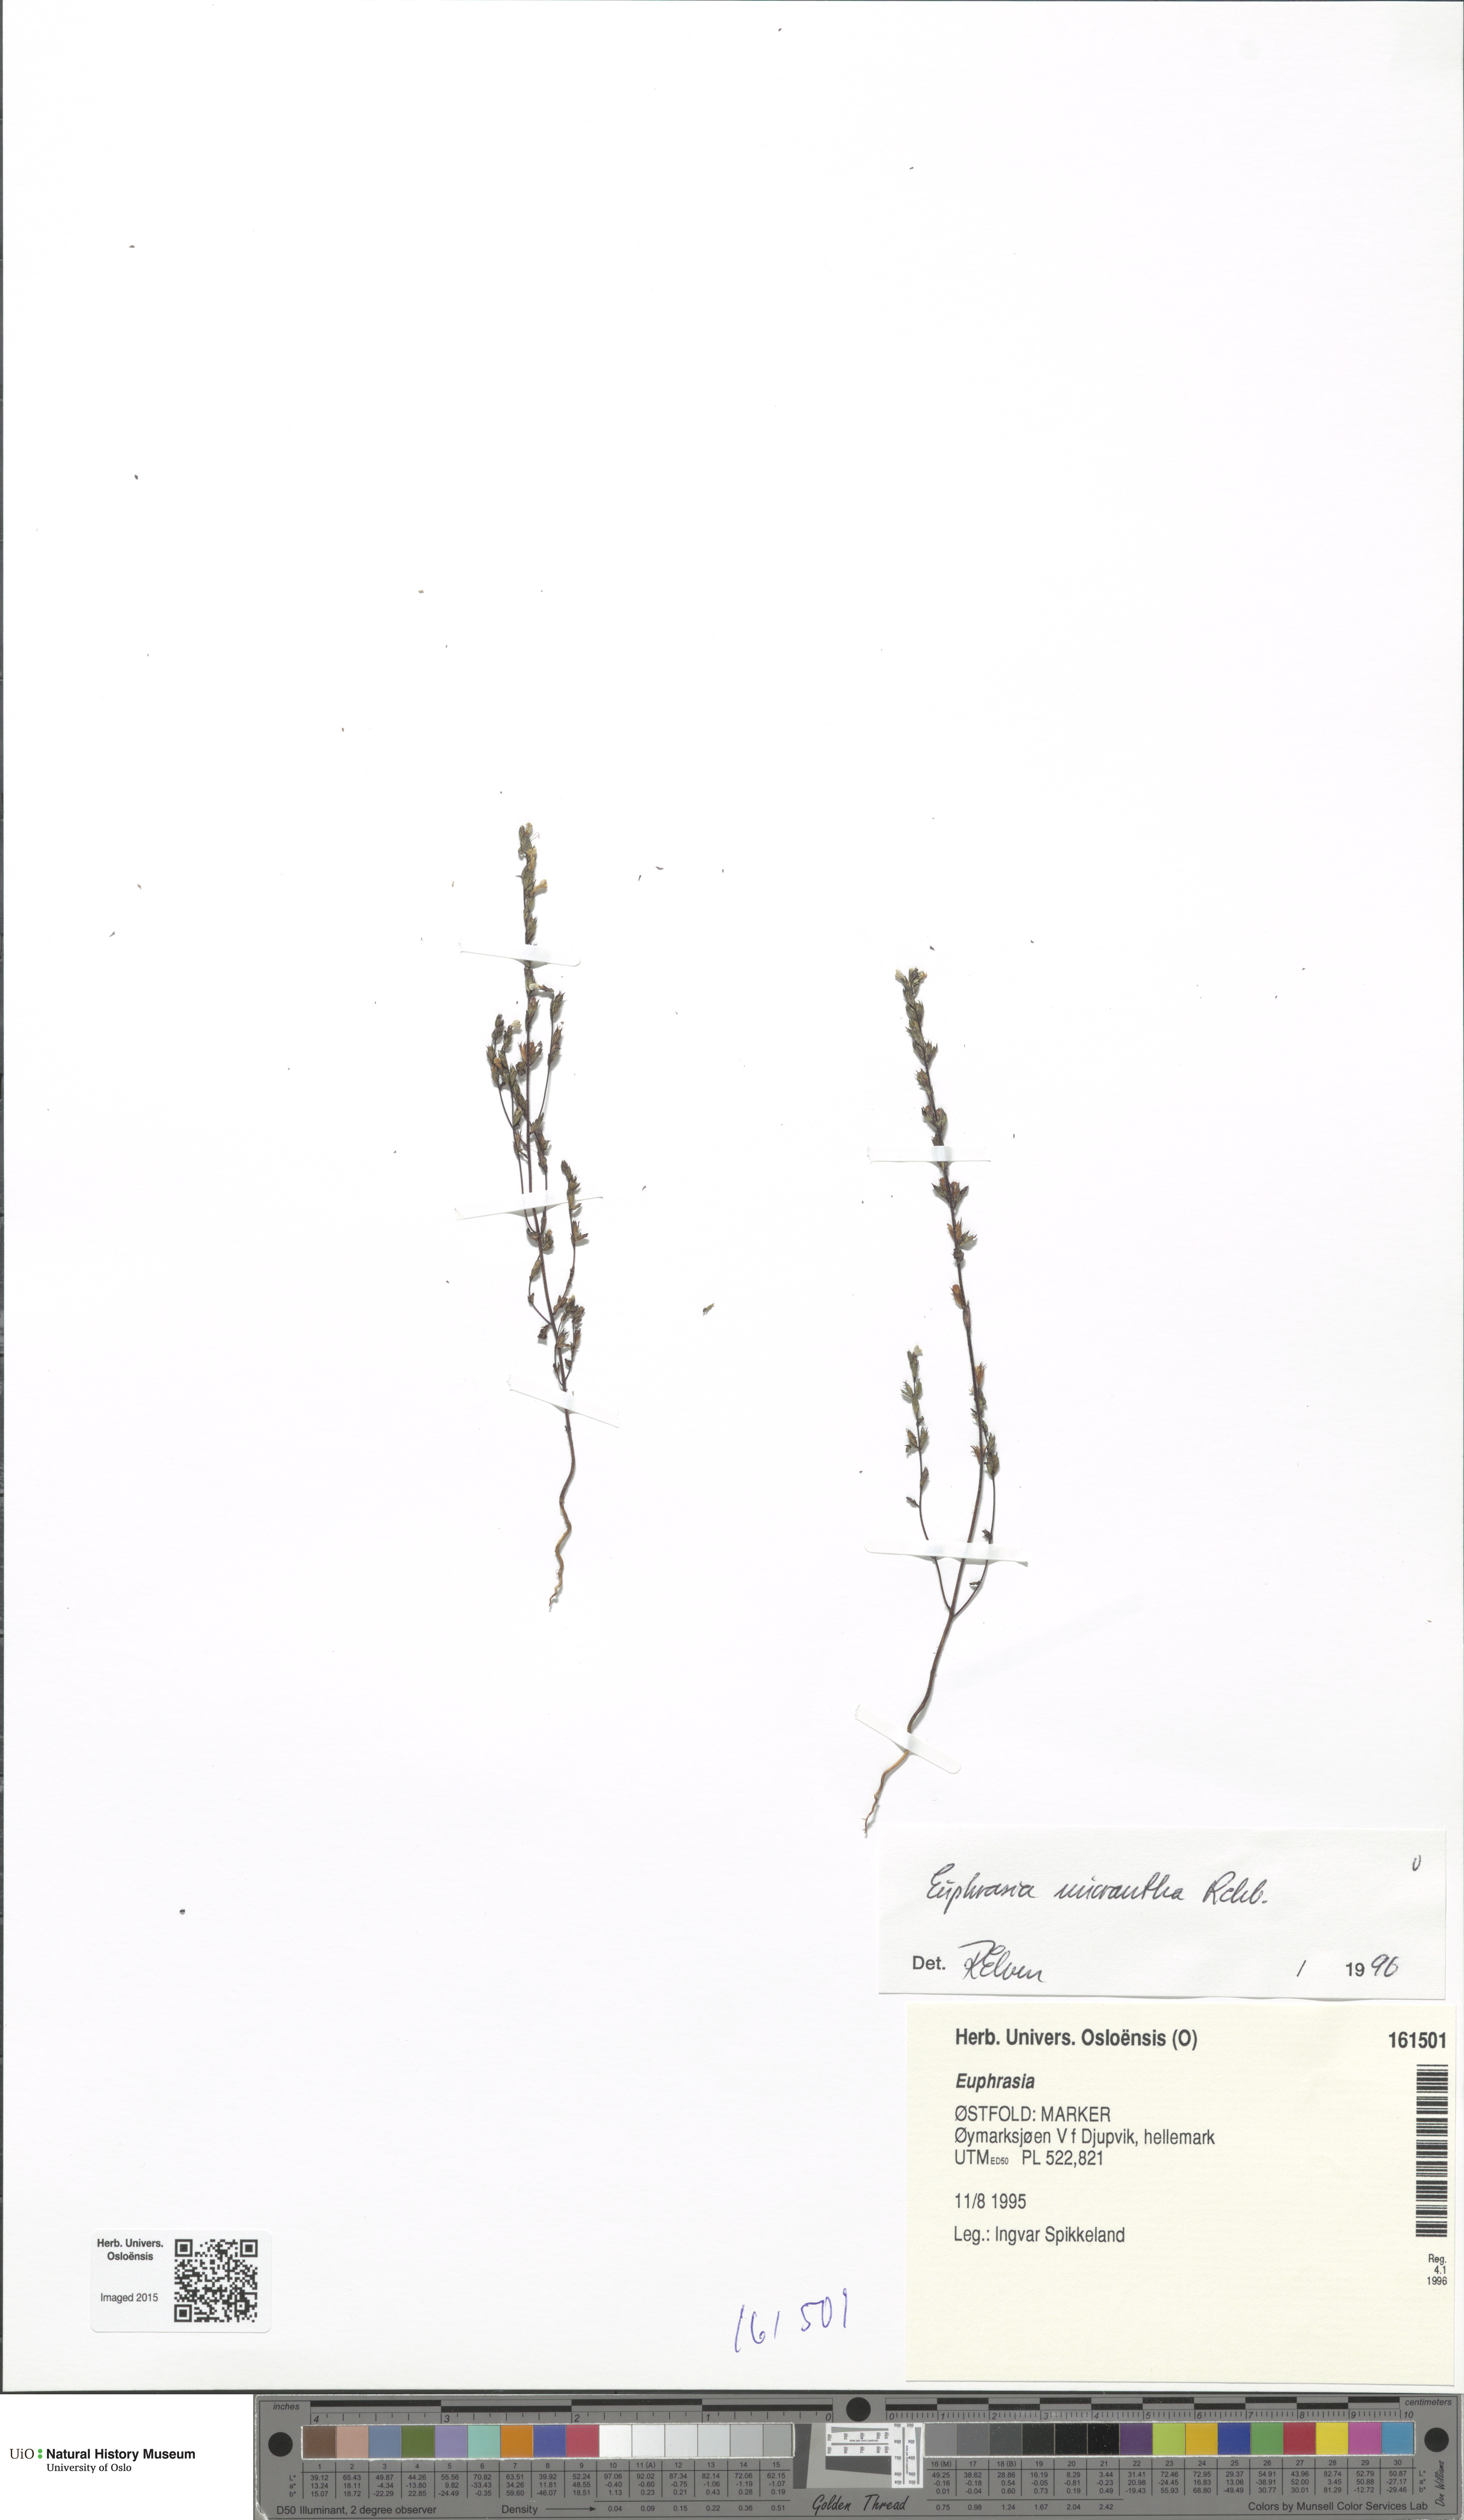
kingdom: Plantae
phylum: Tracheophyta
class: Magnoliopsida
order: Lamiales
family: Orobanchaceae
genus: Euphrasia
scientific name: Euphrasia micrantha
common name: Northern eyebright
